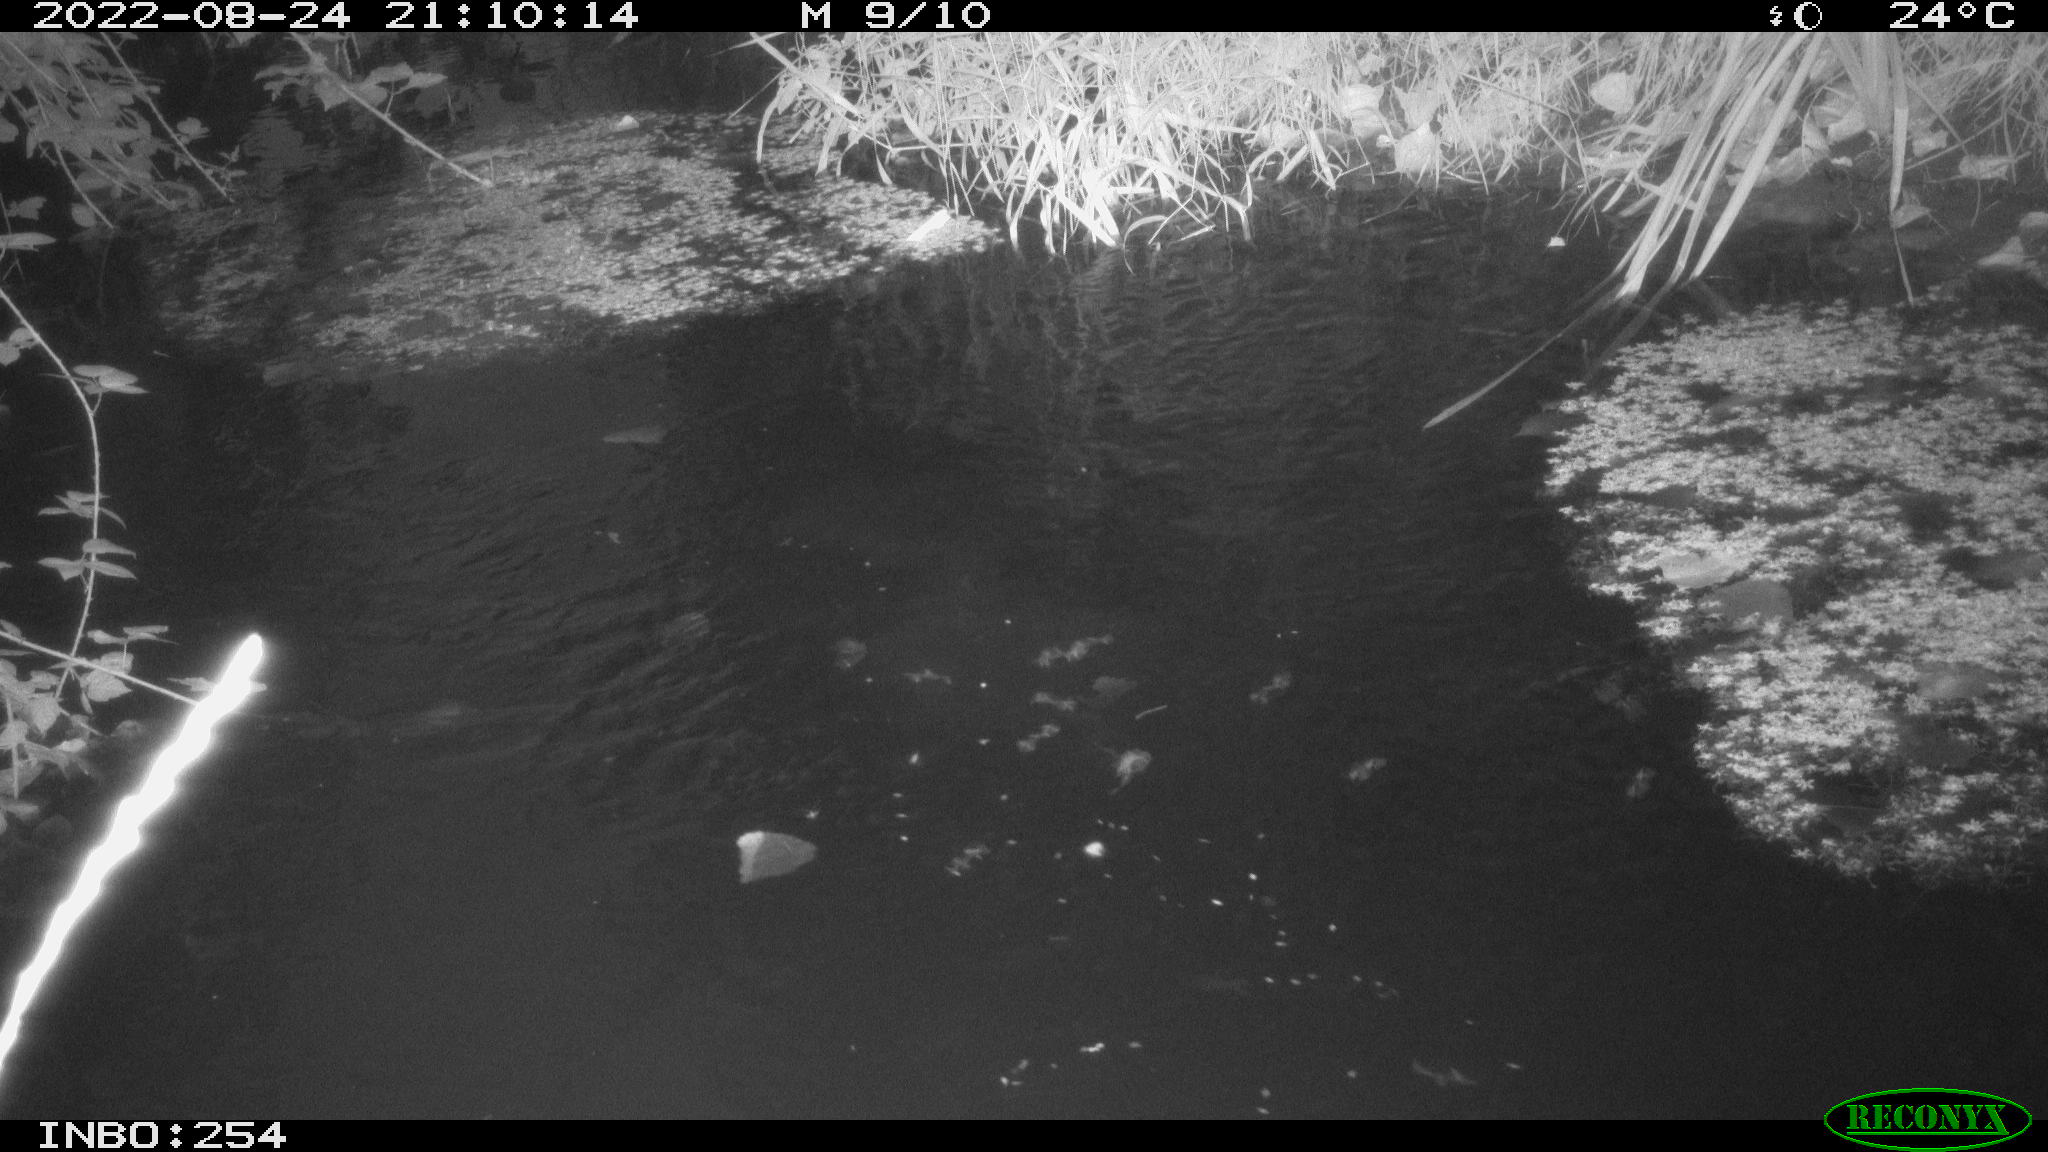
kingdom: Animalia
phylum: Chordata
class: Aves
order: Anseriformes
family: Anatidae
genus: Anas
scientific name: Anas platyrhynchos
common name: Mallard
